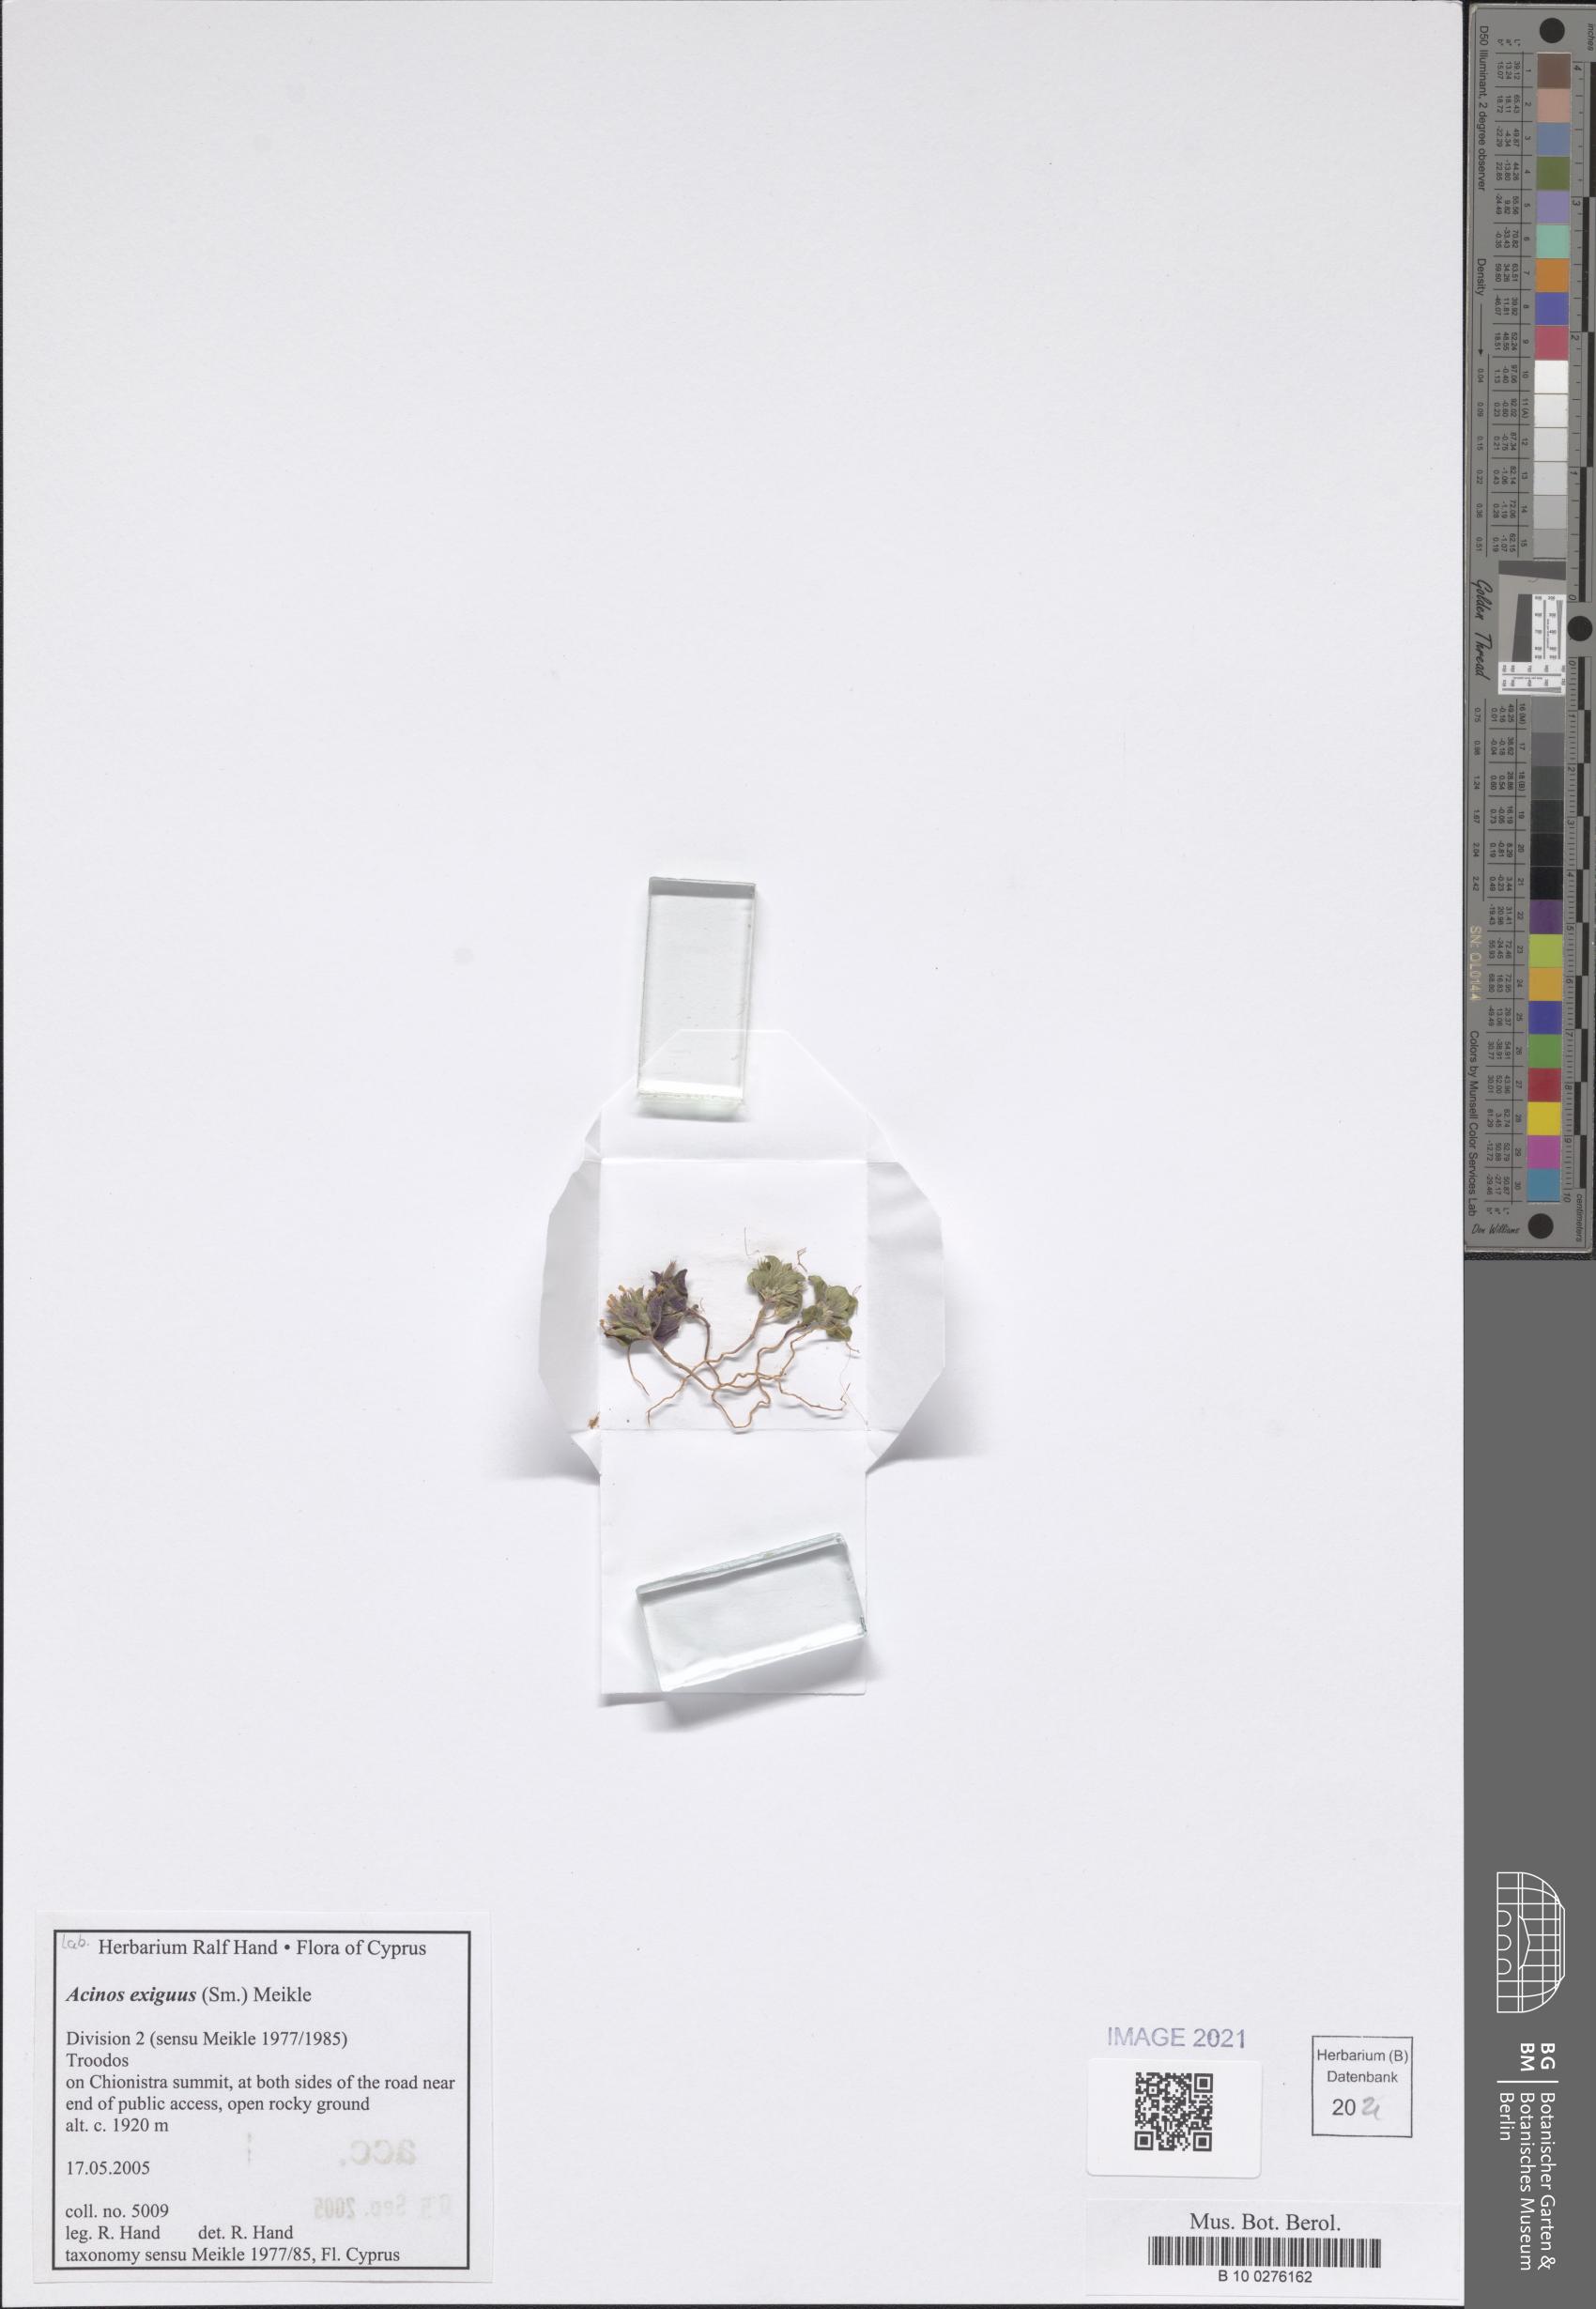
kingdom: Plantae
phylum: Tracheophyta
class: Magnoliopsida
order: Lamiales
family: Lamiaceae
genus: Clinopodium
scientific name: Clinopodium graveolens
